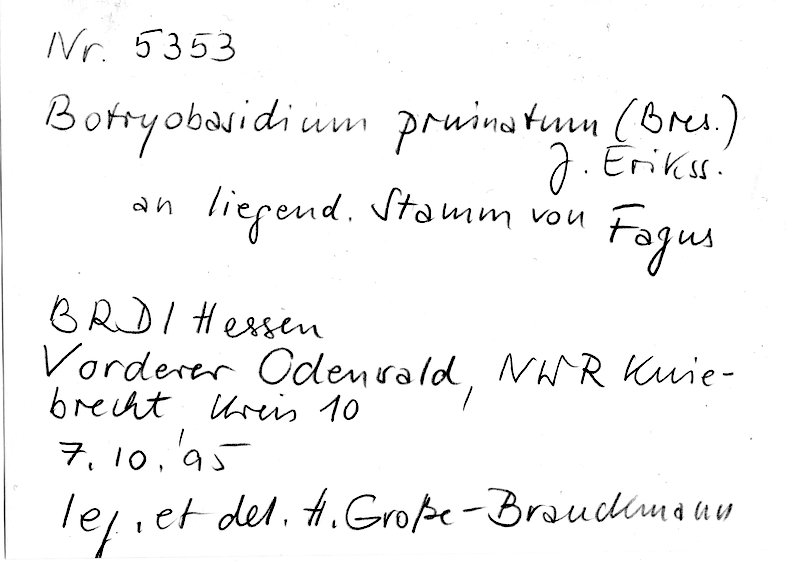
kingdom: Fungi
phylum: Basidiomycota
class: Agaricomycetes
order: Cantharellales
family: Botryobasidiaceae
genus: Botryobasidium
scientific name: Botryobasidium pruinatum
